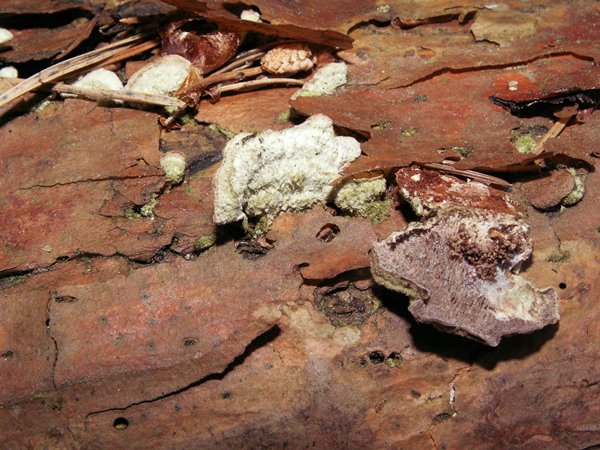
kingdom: Fungi
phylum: Basidiomycota
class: Agaricomycetes
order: Hymenochaetales
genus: Trichaptum
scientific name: Trichaptum fuscoviolaceum
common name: tandet violporesvamp
